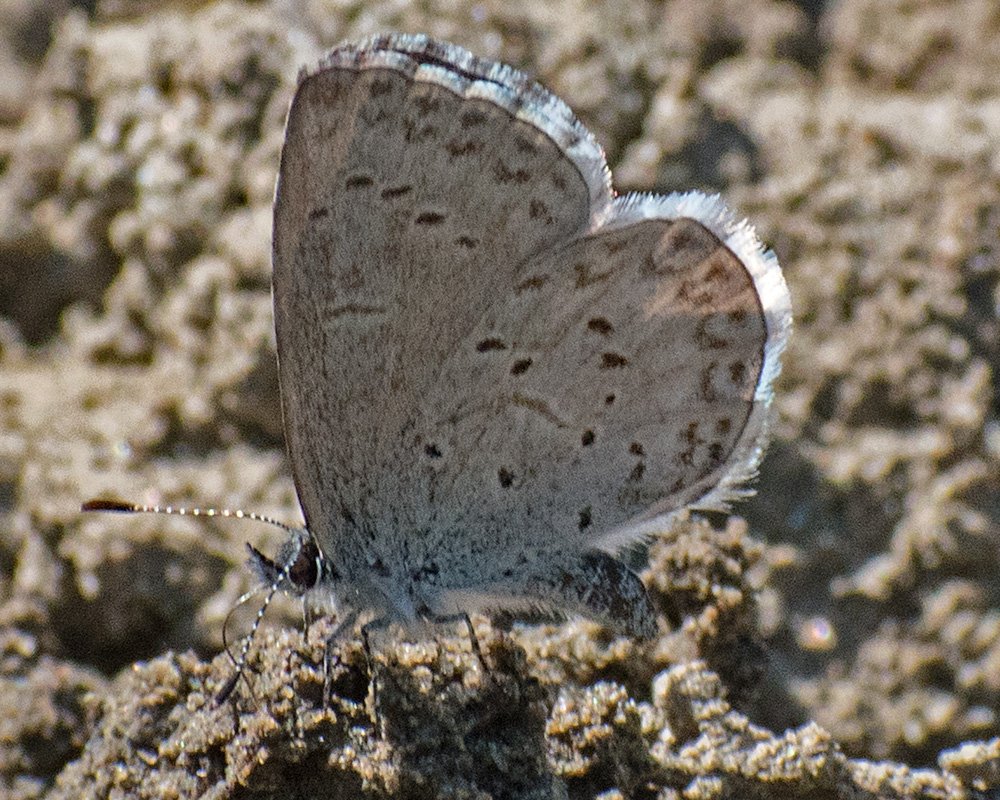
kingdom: Animalia
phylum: Arthropoda
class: Insecta
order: Lepidoptera
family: Lycaenidae
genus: Celastrina
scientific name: Celastrina ladon
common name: Echo Azure
